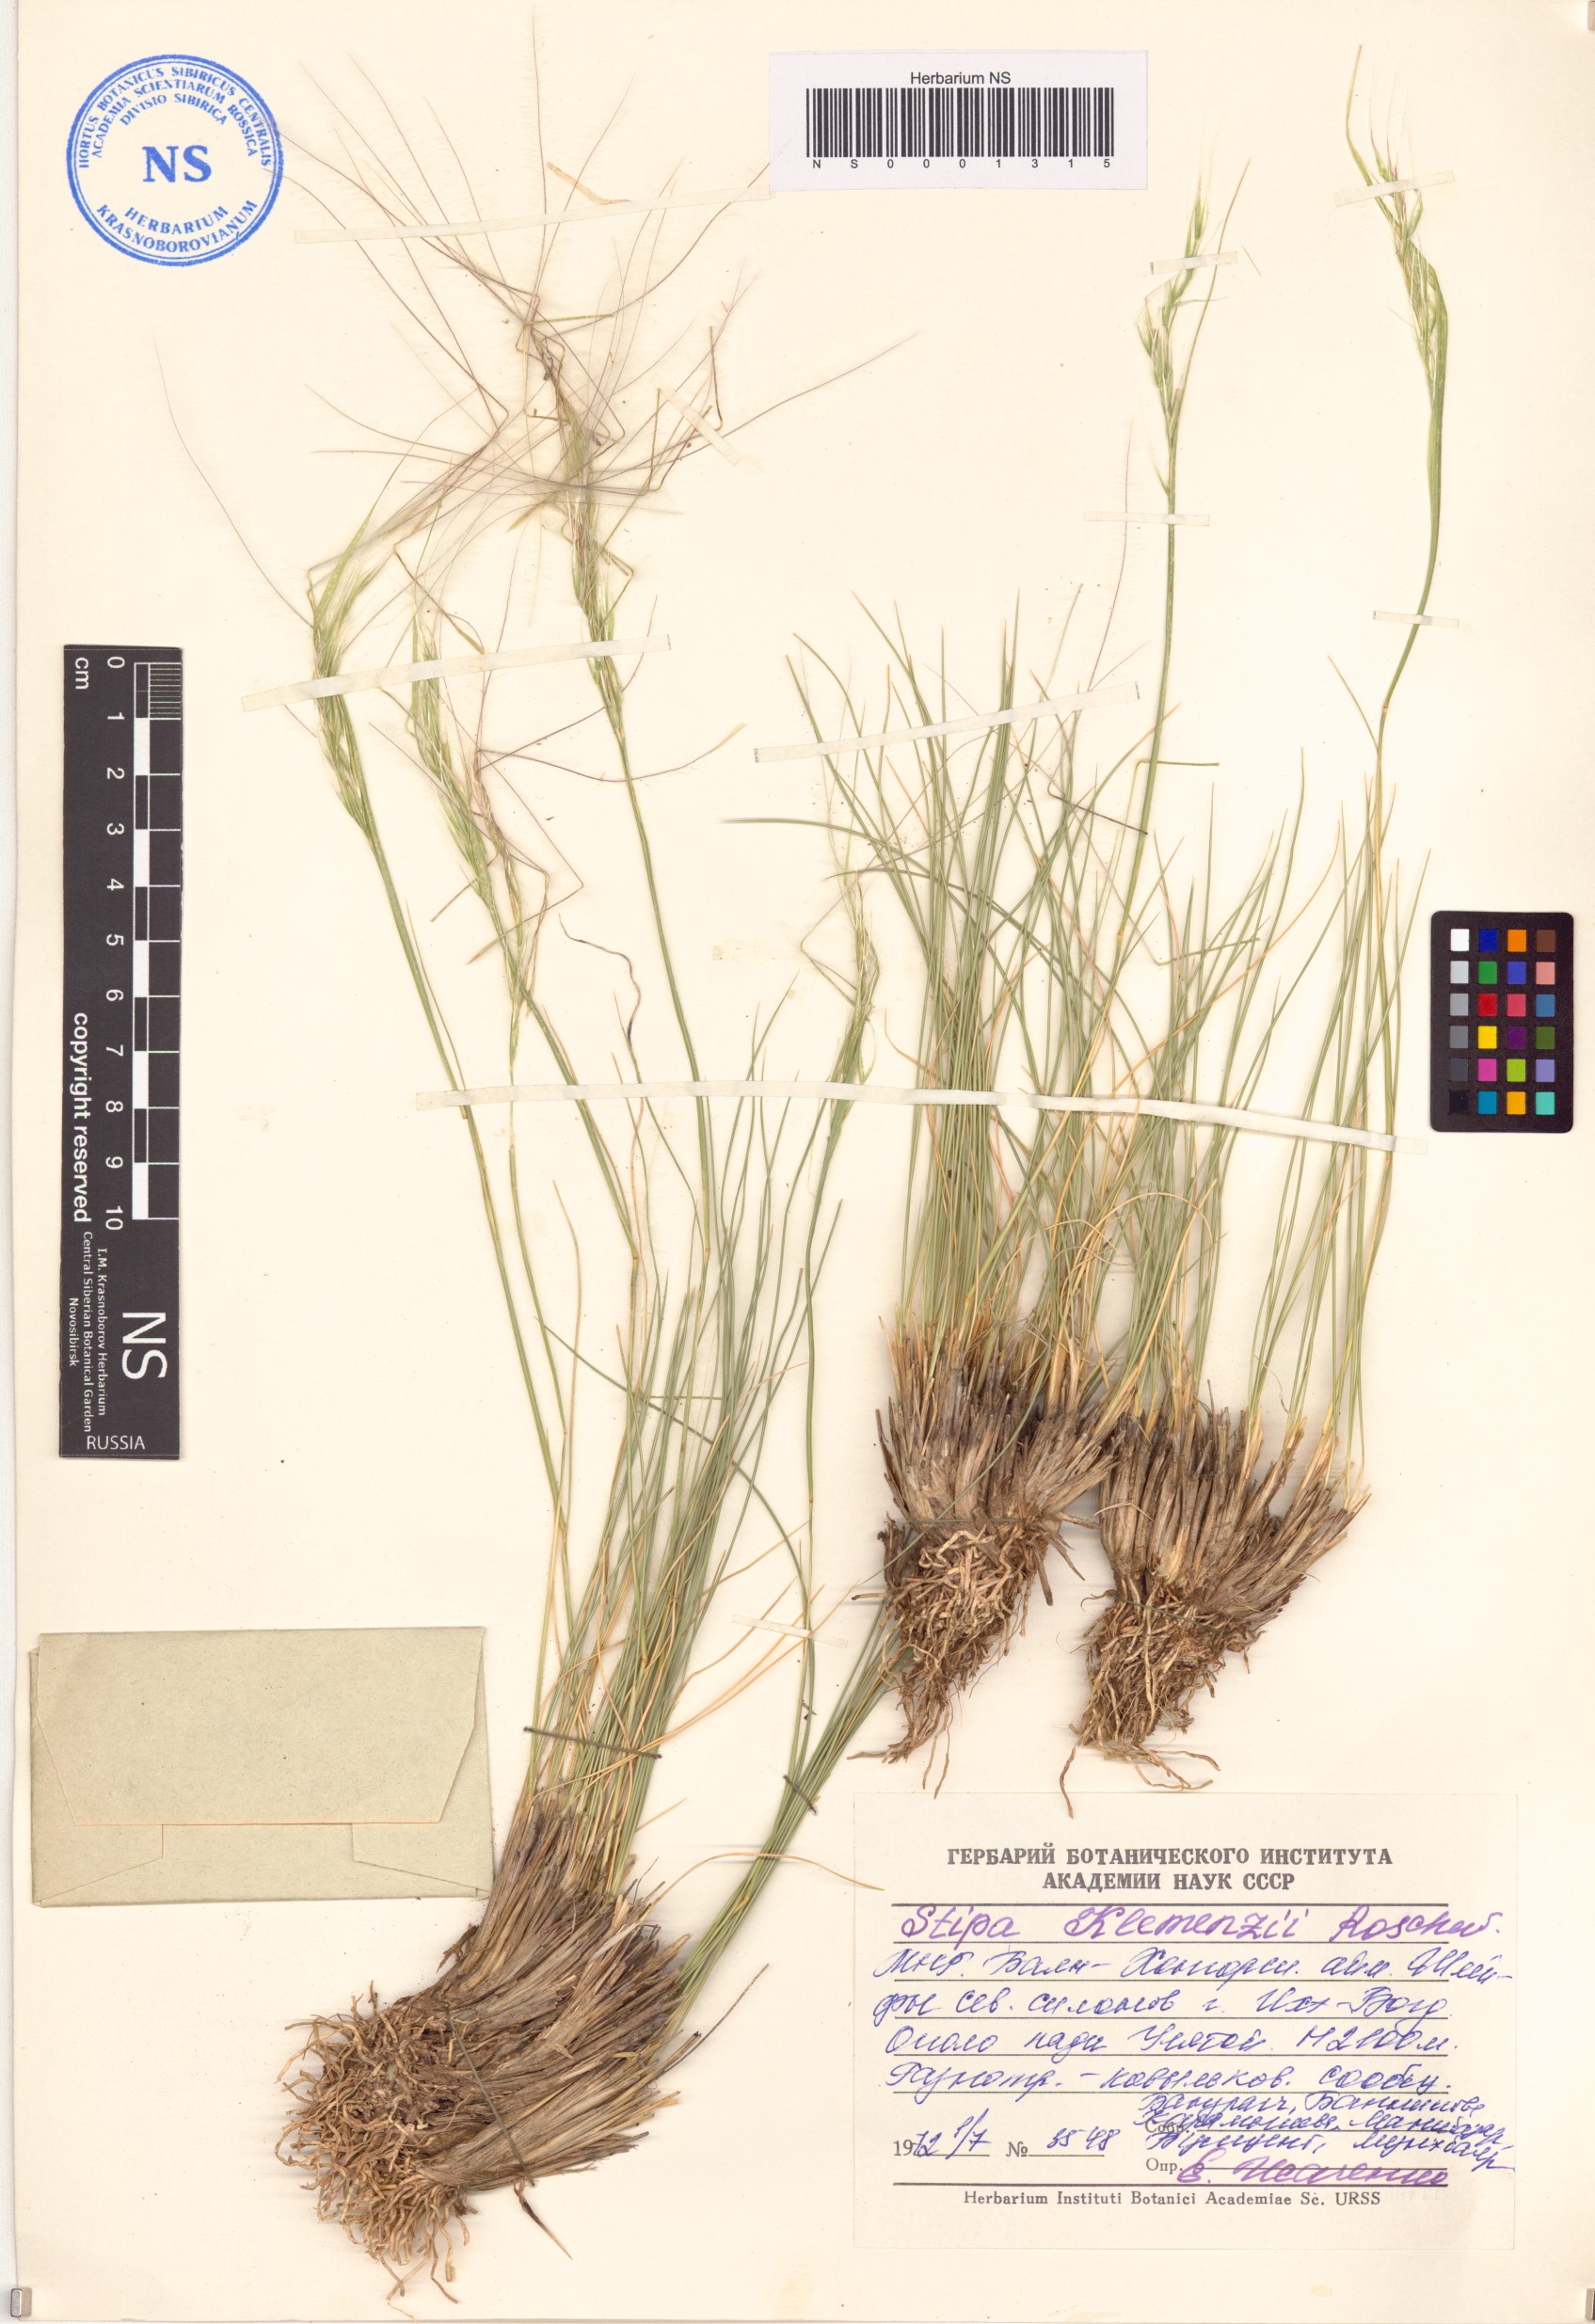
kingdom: Plantae
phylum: Tracheophyta
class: Liliopsida
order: Poales
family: Poaceae
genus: Stipa
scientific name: Stipa tianschanica
